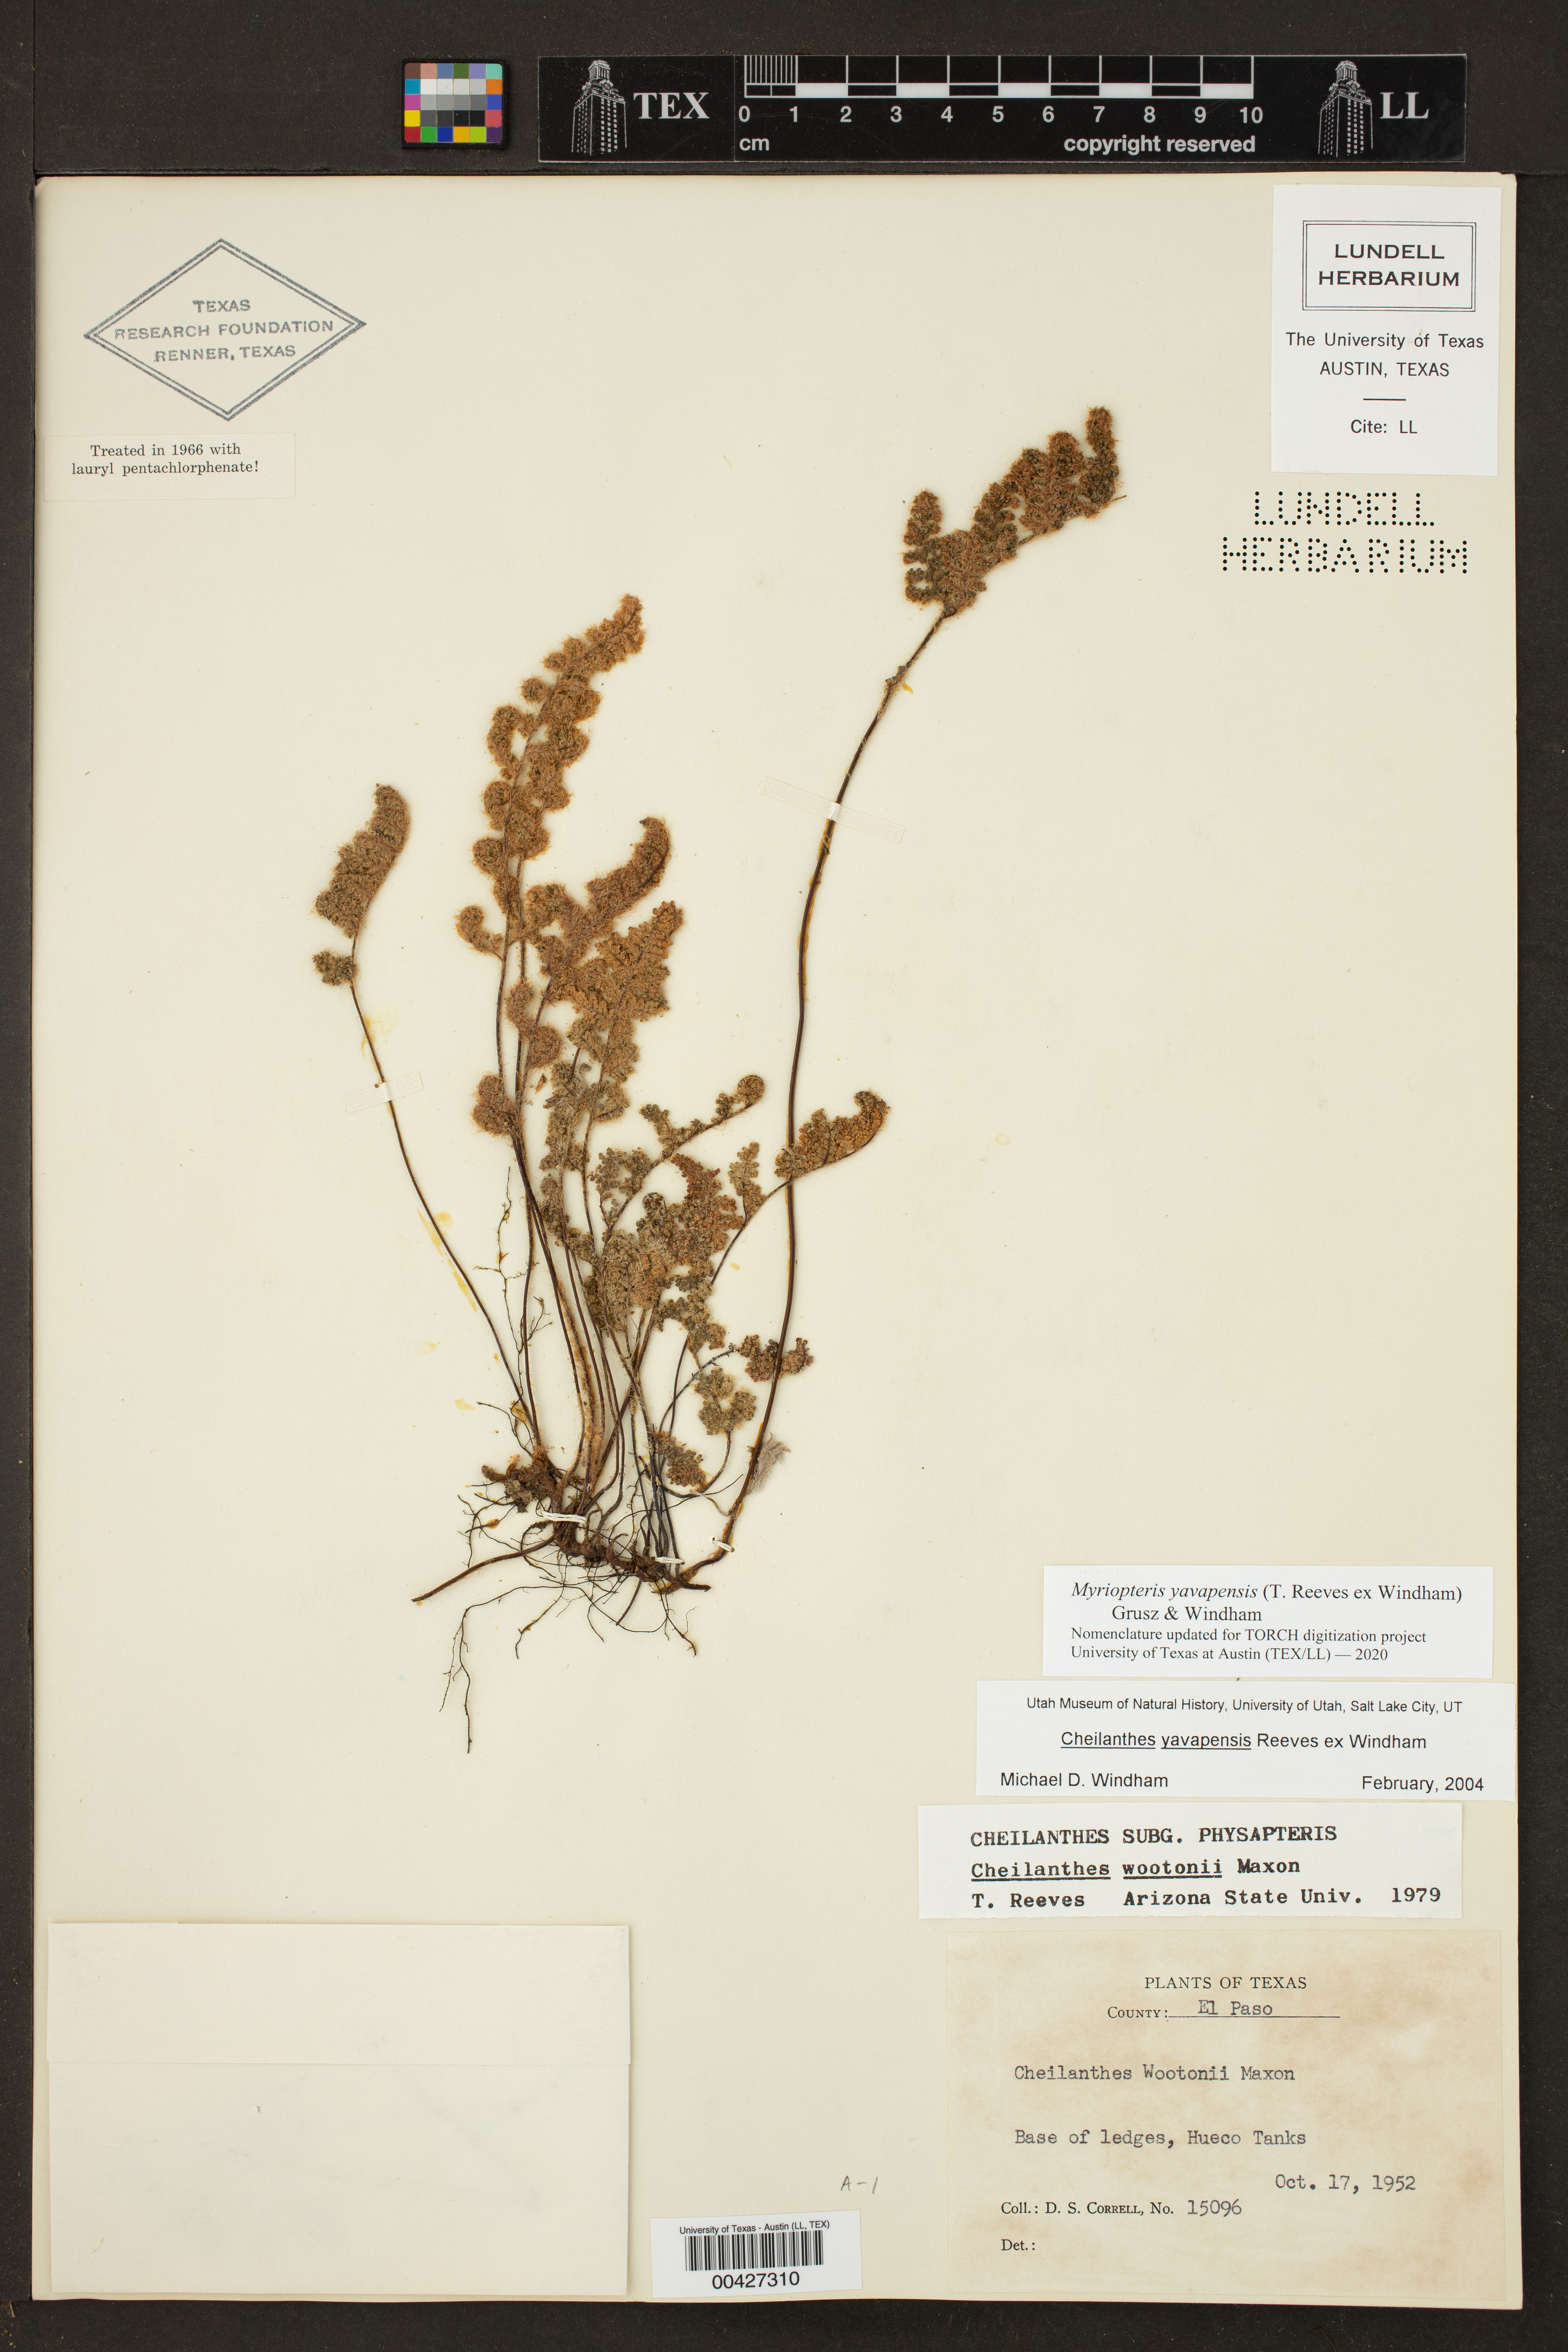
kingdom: Plantae
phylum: Tracheophyta
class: Polypodiopsida
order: Polypodiales
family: Pteridaceae
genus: Myriopteris
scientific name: Myriopteris yavapensis
